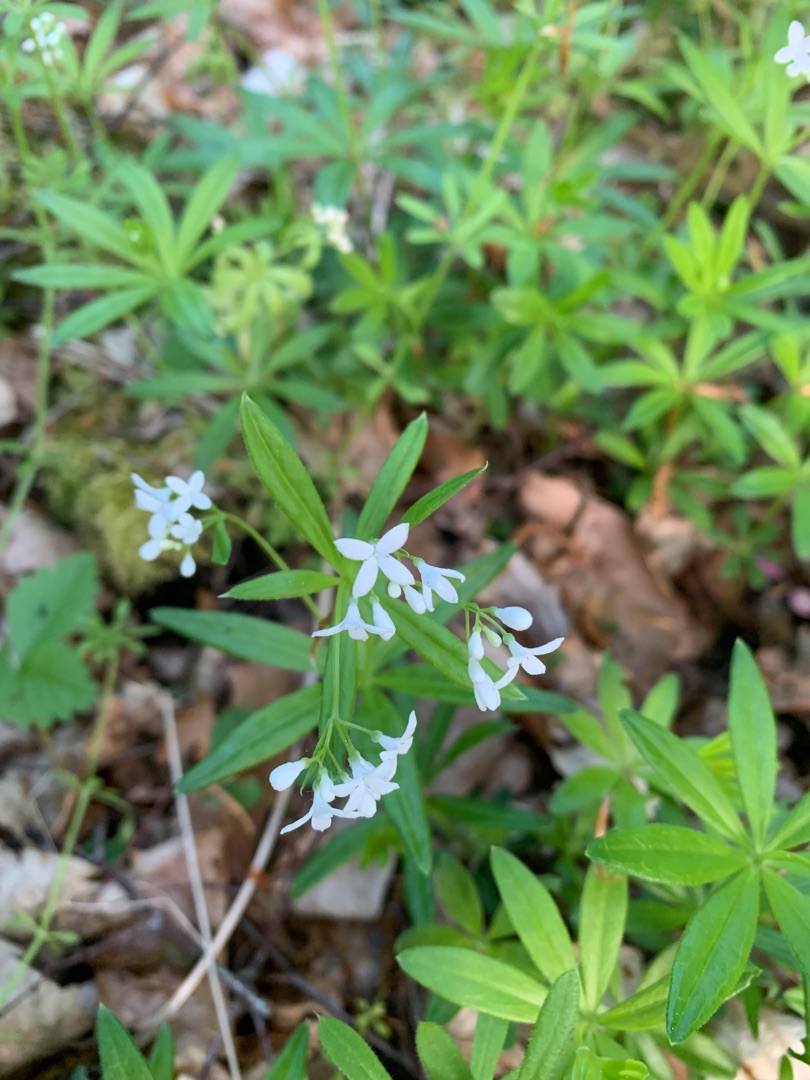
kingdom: Plantae
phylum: Tracheophyta
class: Magnoliopsida
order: Gentianales
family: Rubiaceae
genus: Galium
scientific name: Galium odoratum
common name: Skovmærke
